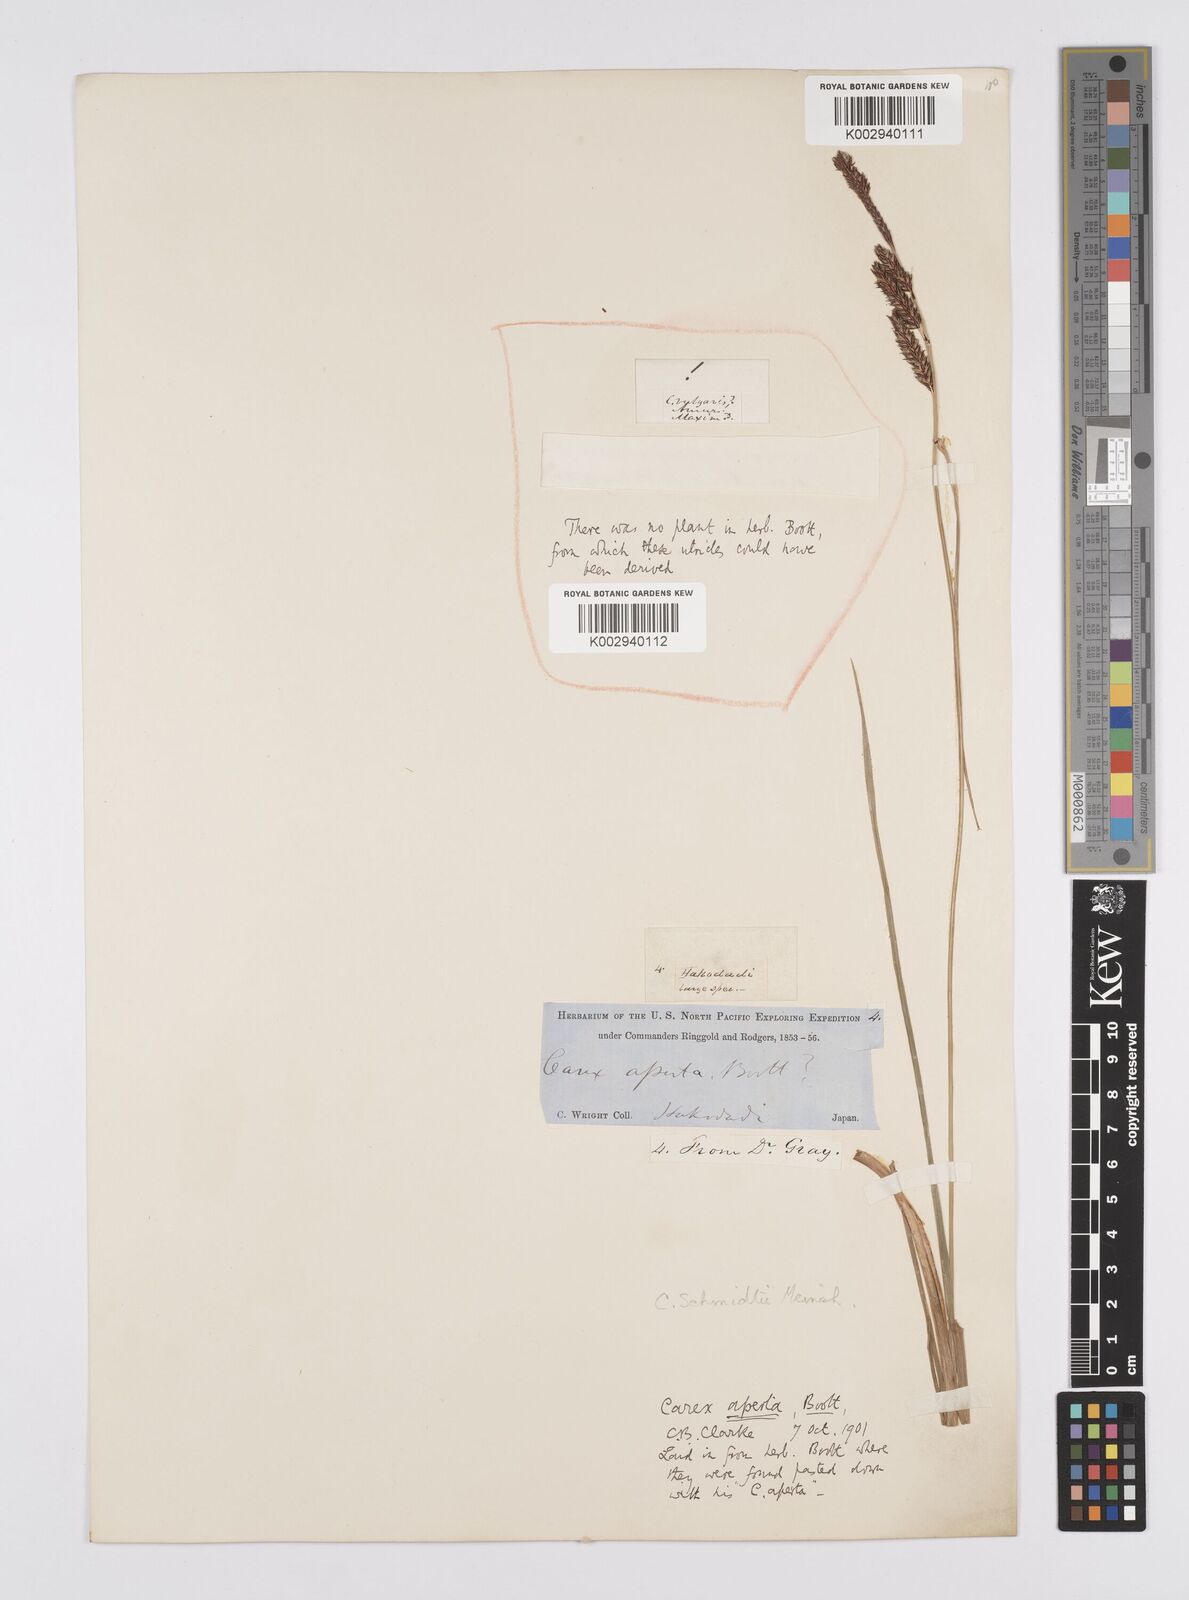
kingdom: Plantae
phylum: Tracheophyta
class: Liliopsida
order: Poales
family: Cyperaceae
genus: Carex
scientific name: Carex schmidtii
